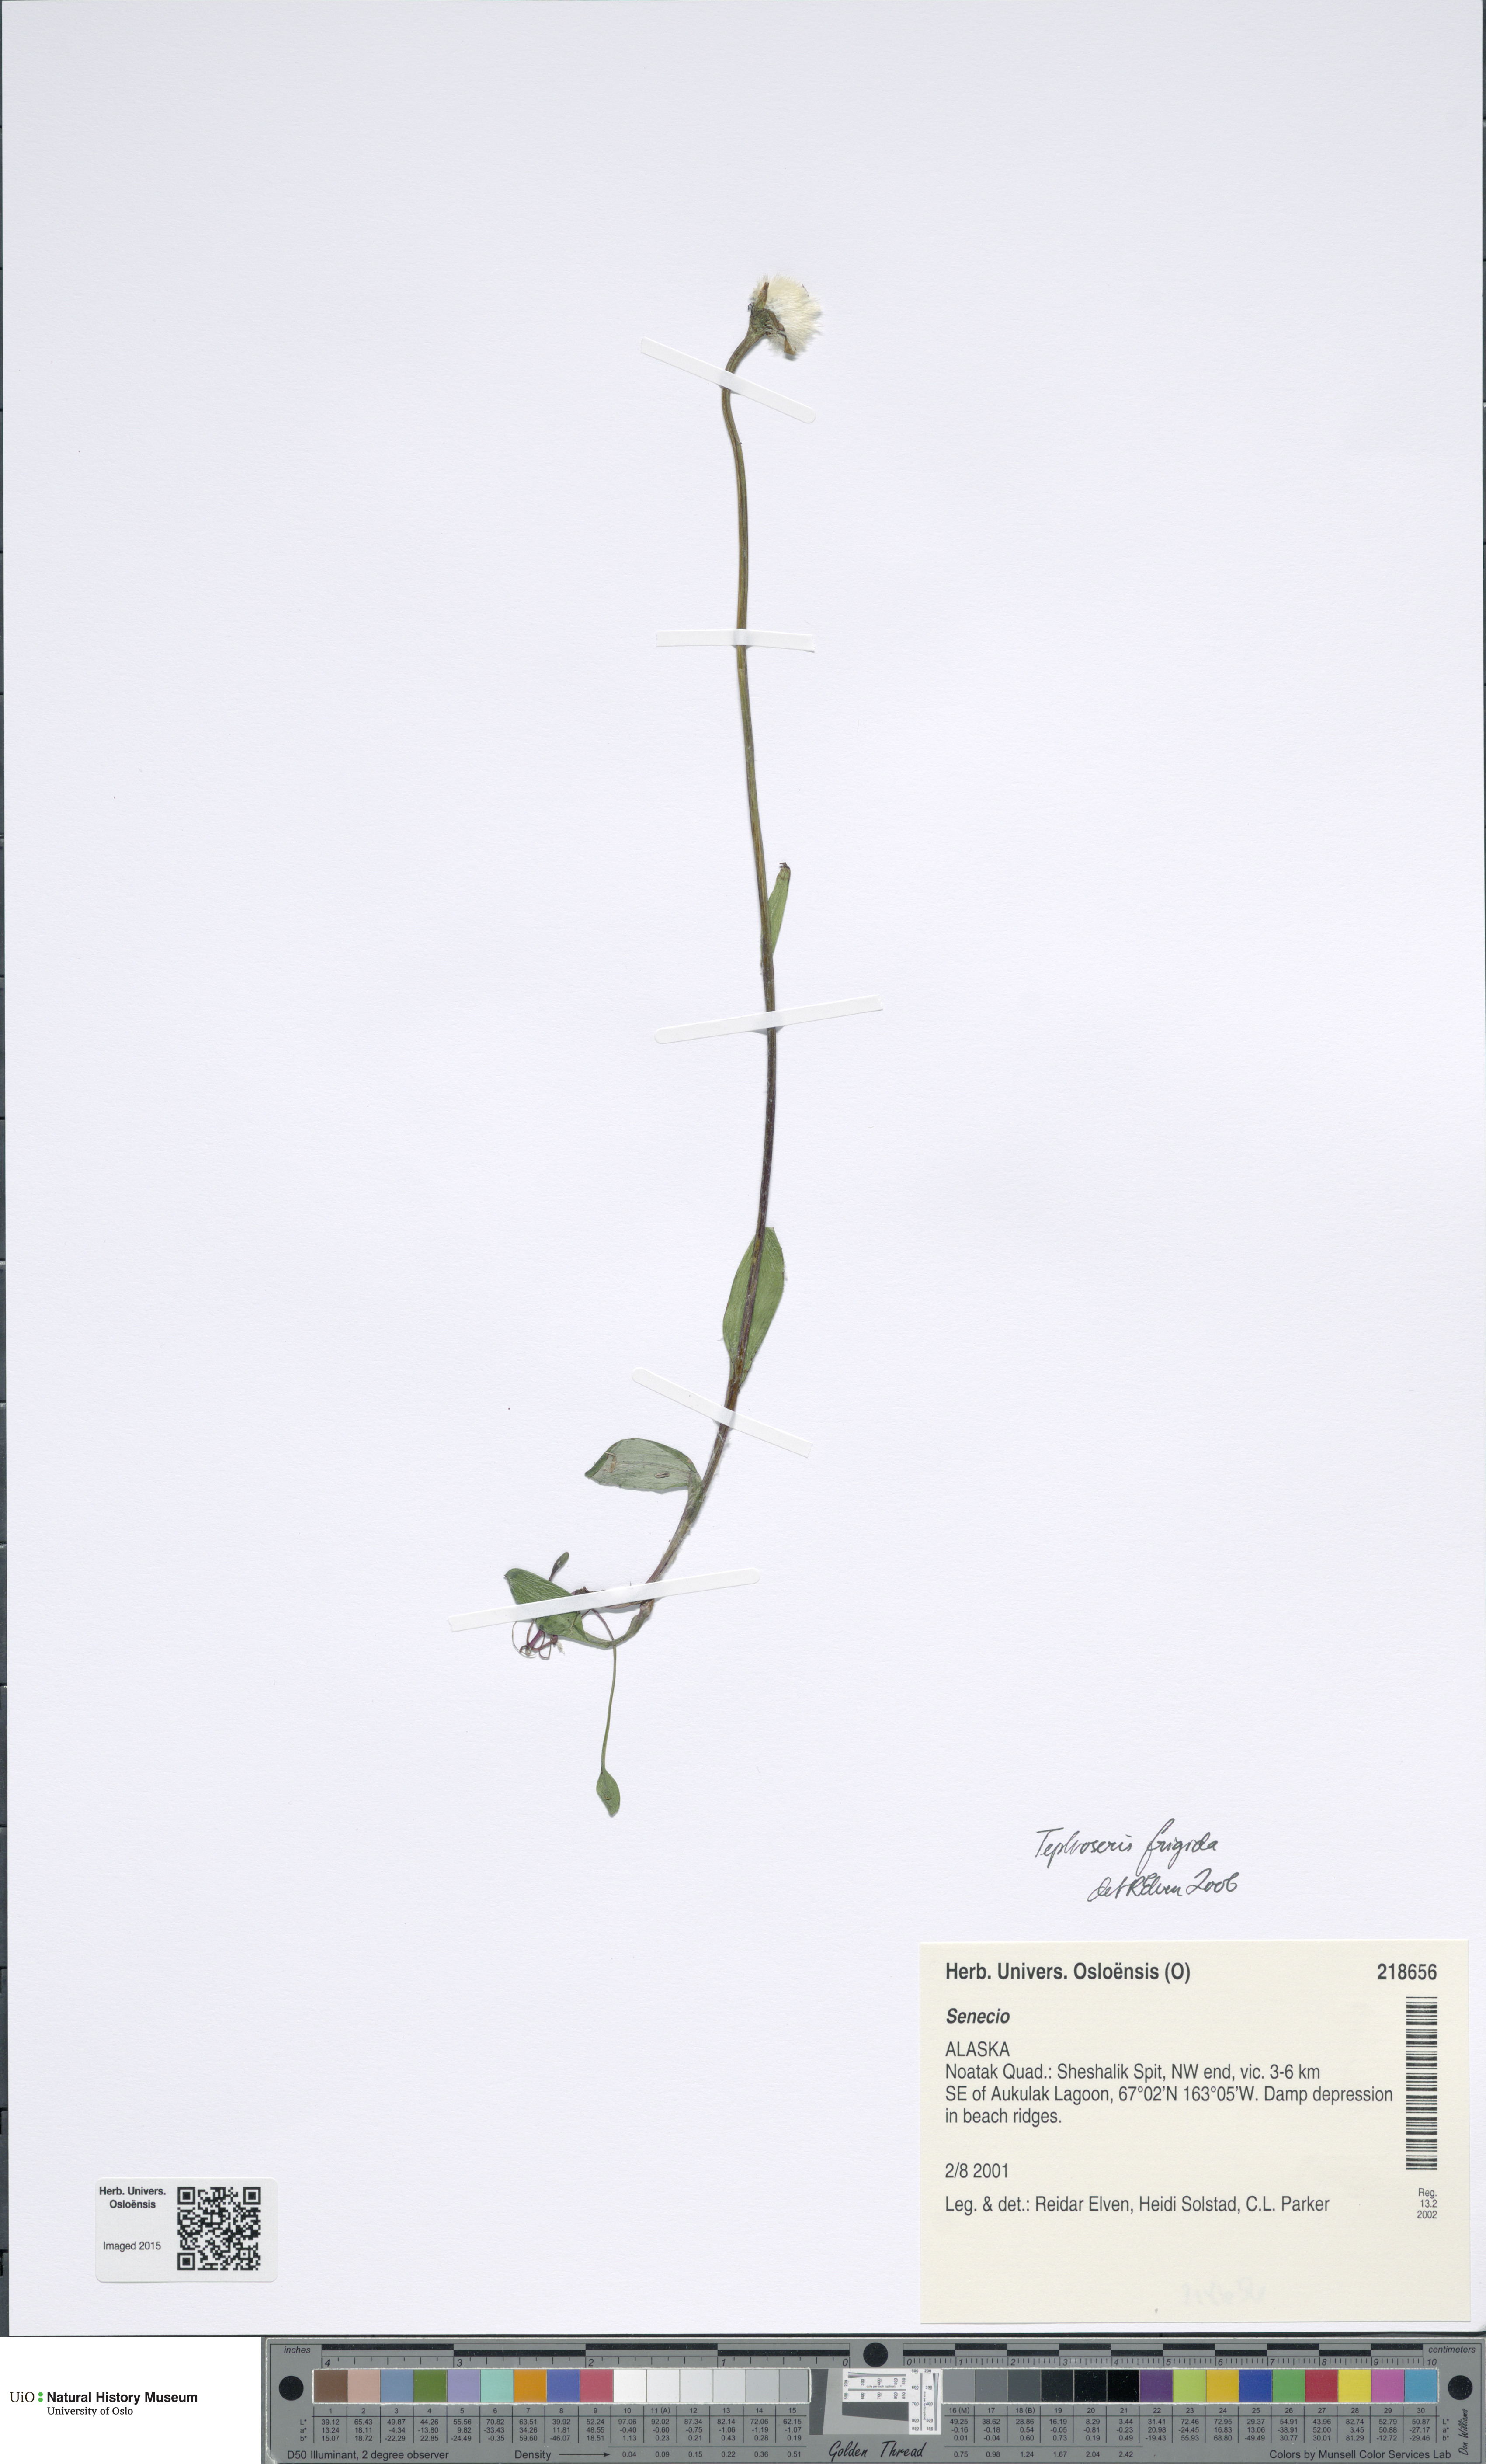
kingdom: Plantae
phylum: Tracheophyta
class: Magnoliopsida
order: Asterales
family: Asteraceae
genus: Tephroseris
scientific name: Tephroseris integrifolia
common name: Field fleawort
